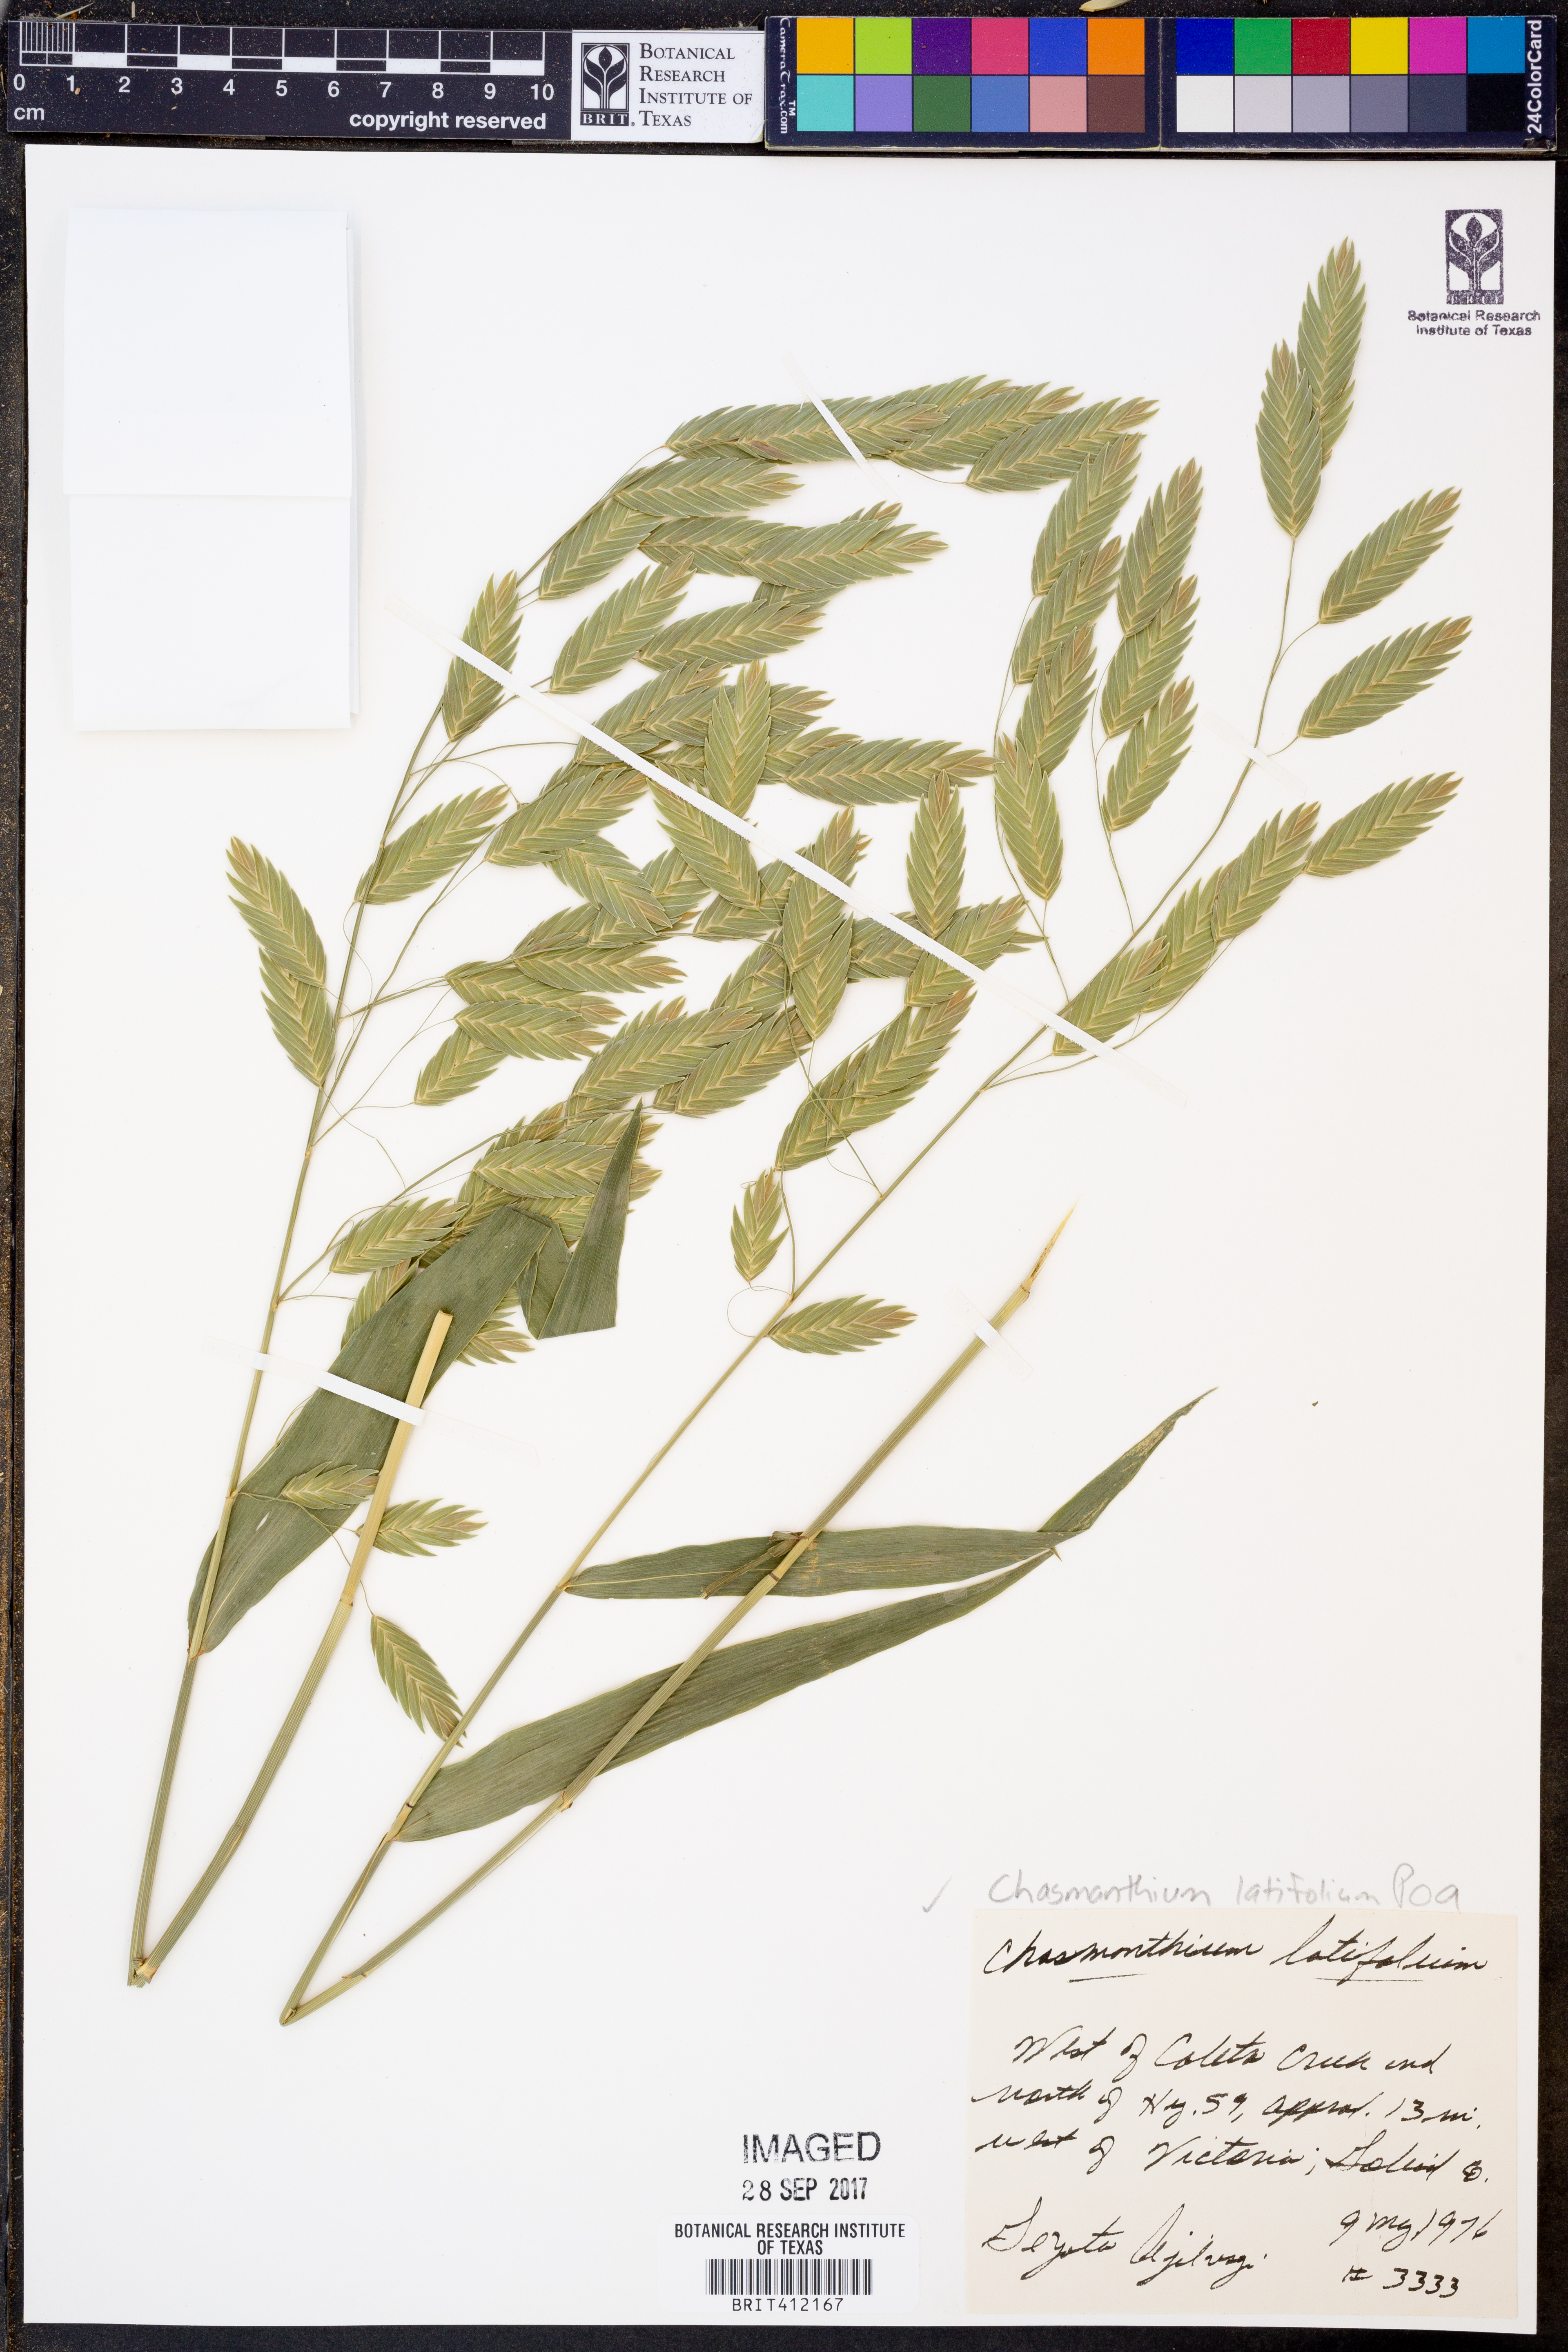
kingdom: Plantae
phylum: Tracheophyta
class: Liliopsida
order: Poales
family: Poaceae
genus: Chasmanthium
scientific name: Chasmanthium latifolium
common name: Broad-leaved chasmanthium
